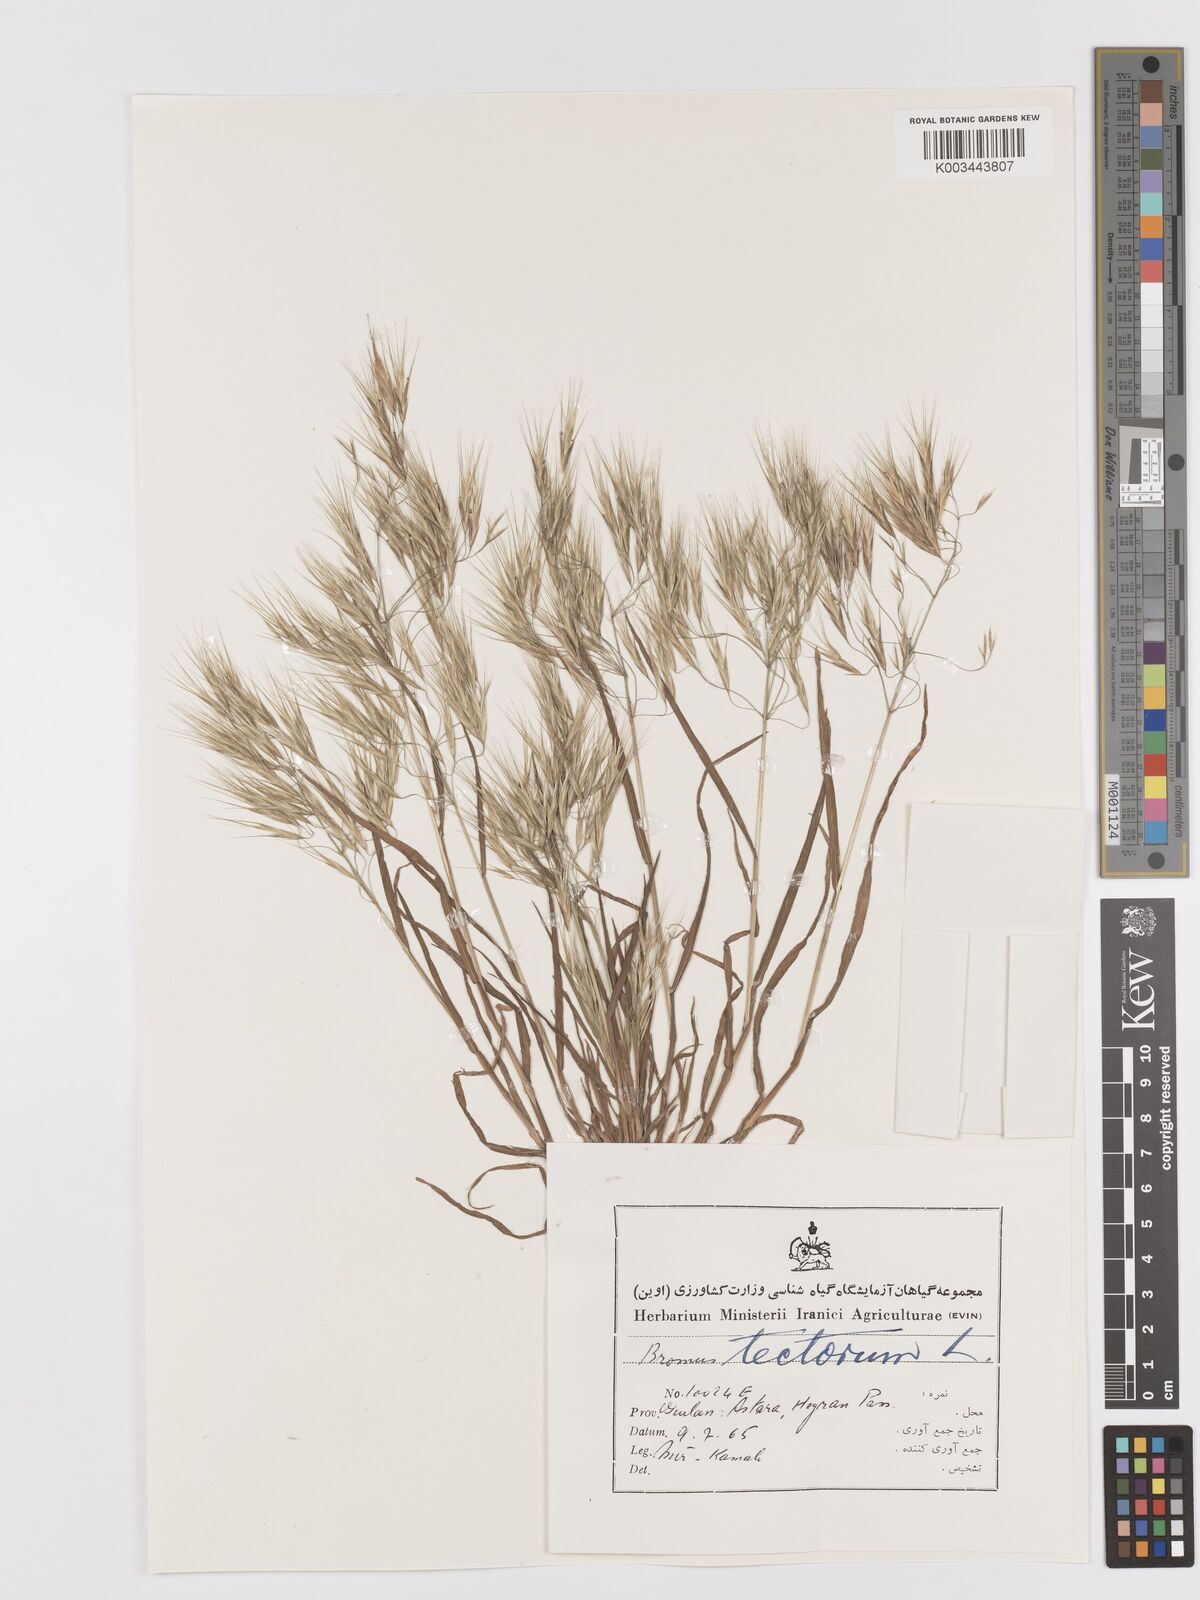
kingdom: Plantae
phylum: Tracheophyta
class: Liliopsida
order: Poales
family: Poaceae
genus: Bromus
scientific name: Bromus tectorum
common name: Cheatgrass
